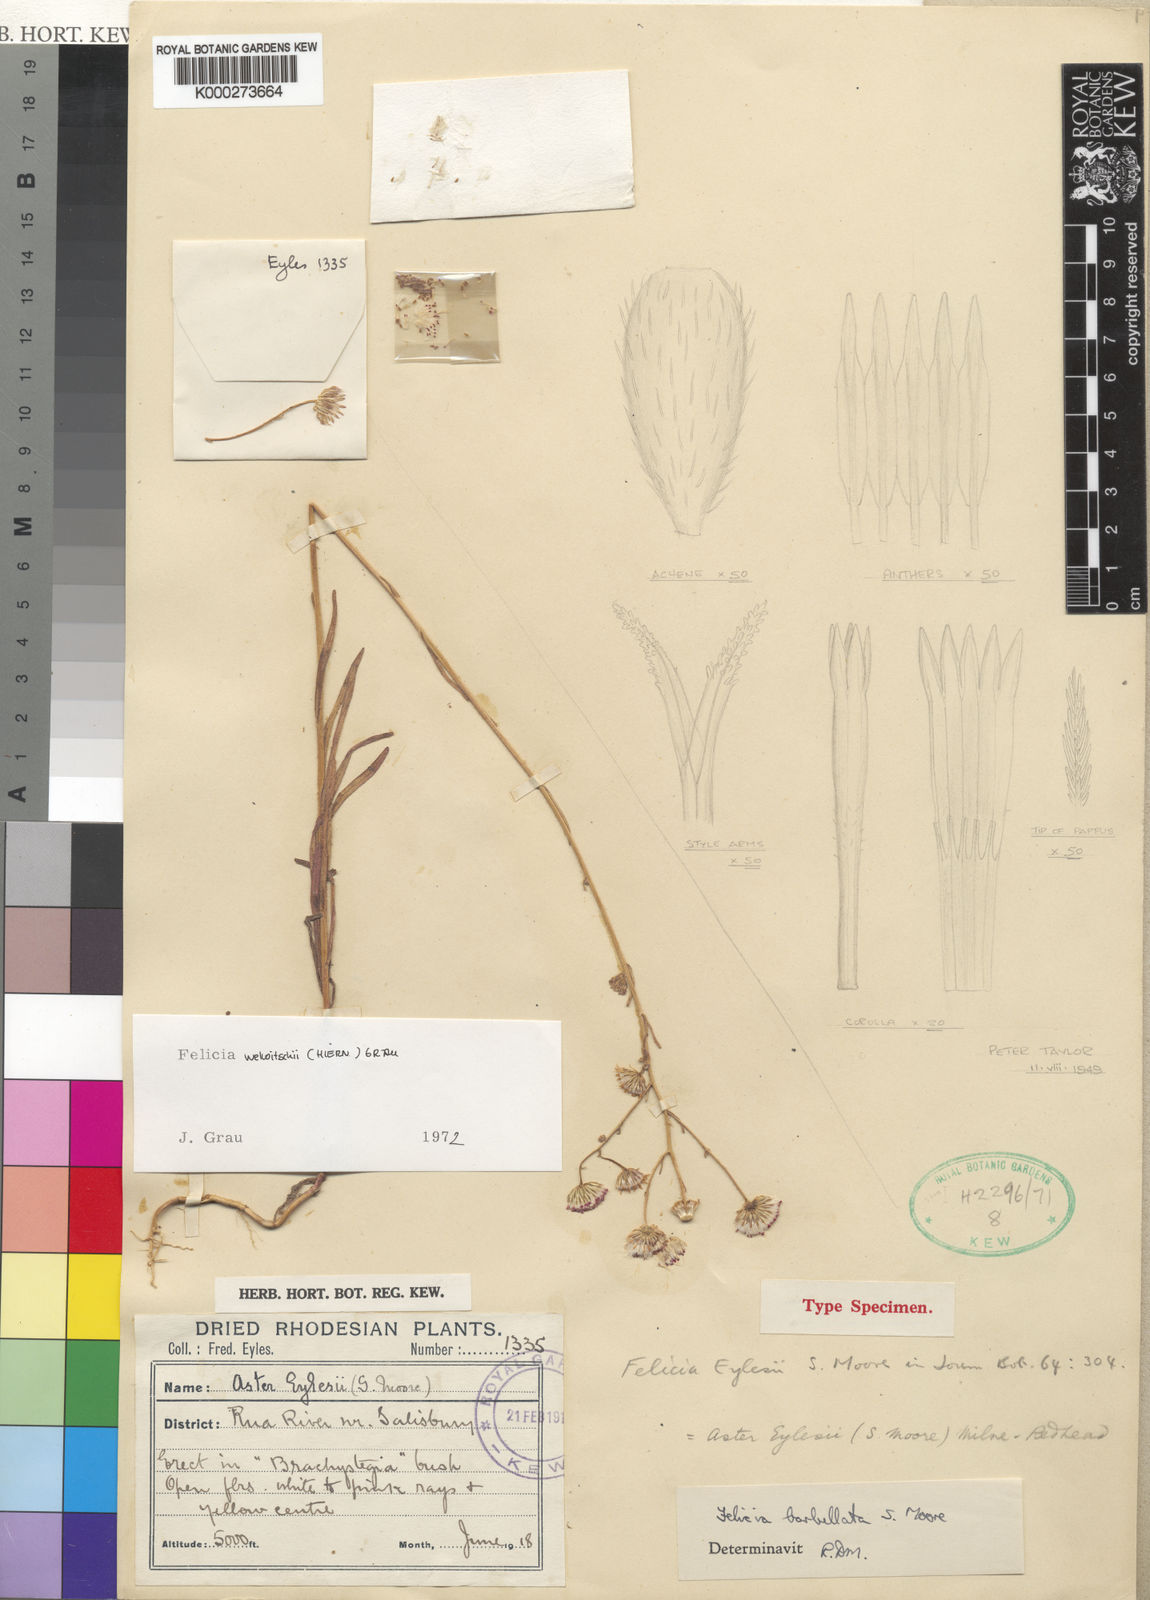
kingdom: Plantae
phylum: Tracheophyta
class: Magnoliopsida
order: Asterales
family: Asteraceae
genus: Felicia
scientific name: Felicia welwitschii
